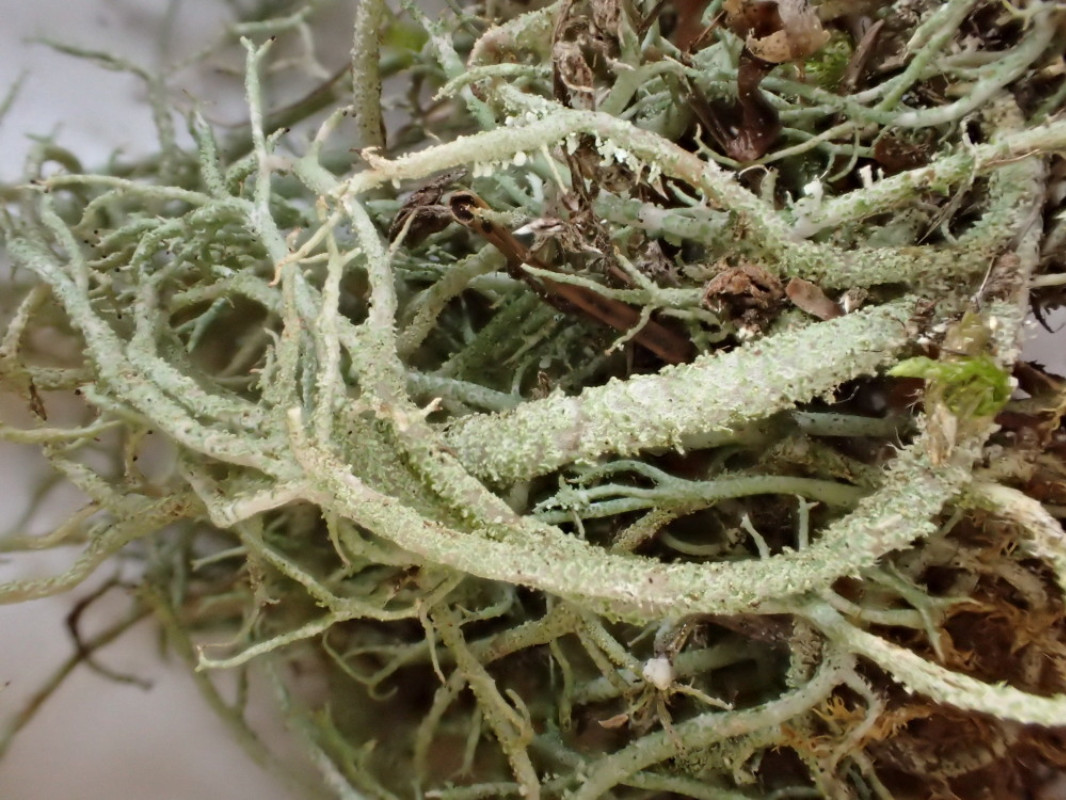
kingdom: Fungi
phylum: Ascomycota
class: Lecanoromycetes
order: Lecanorales
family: Cladoniaceae
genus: Cladonia
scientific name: Cladonia scabriuscula
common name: ru bægerlav
